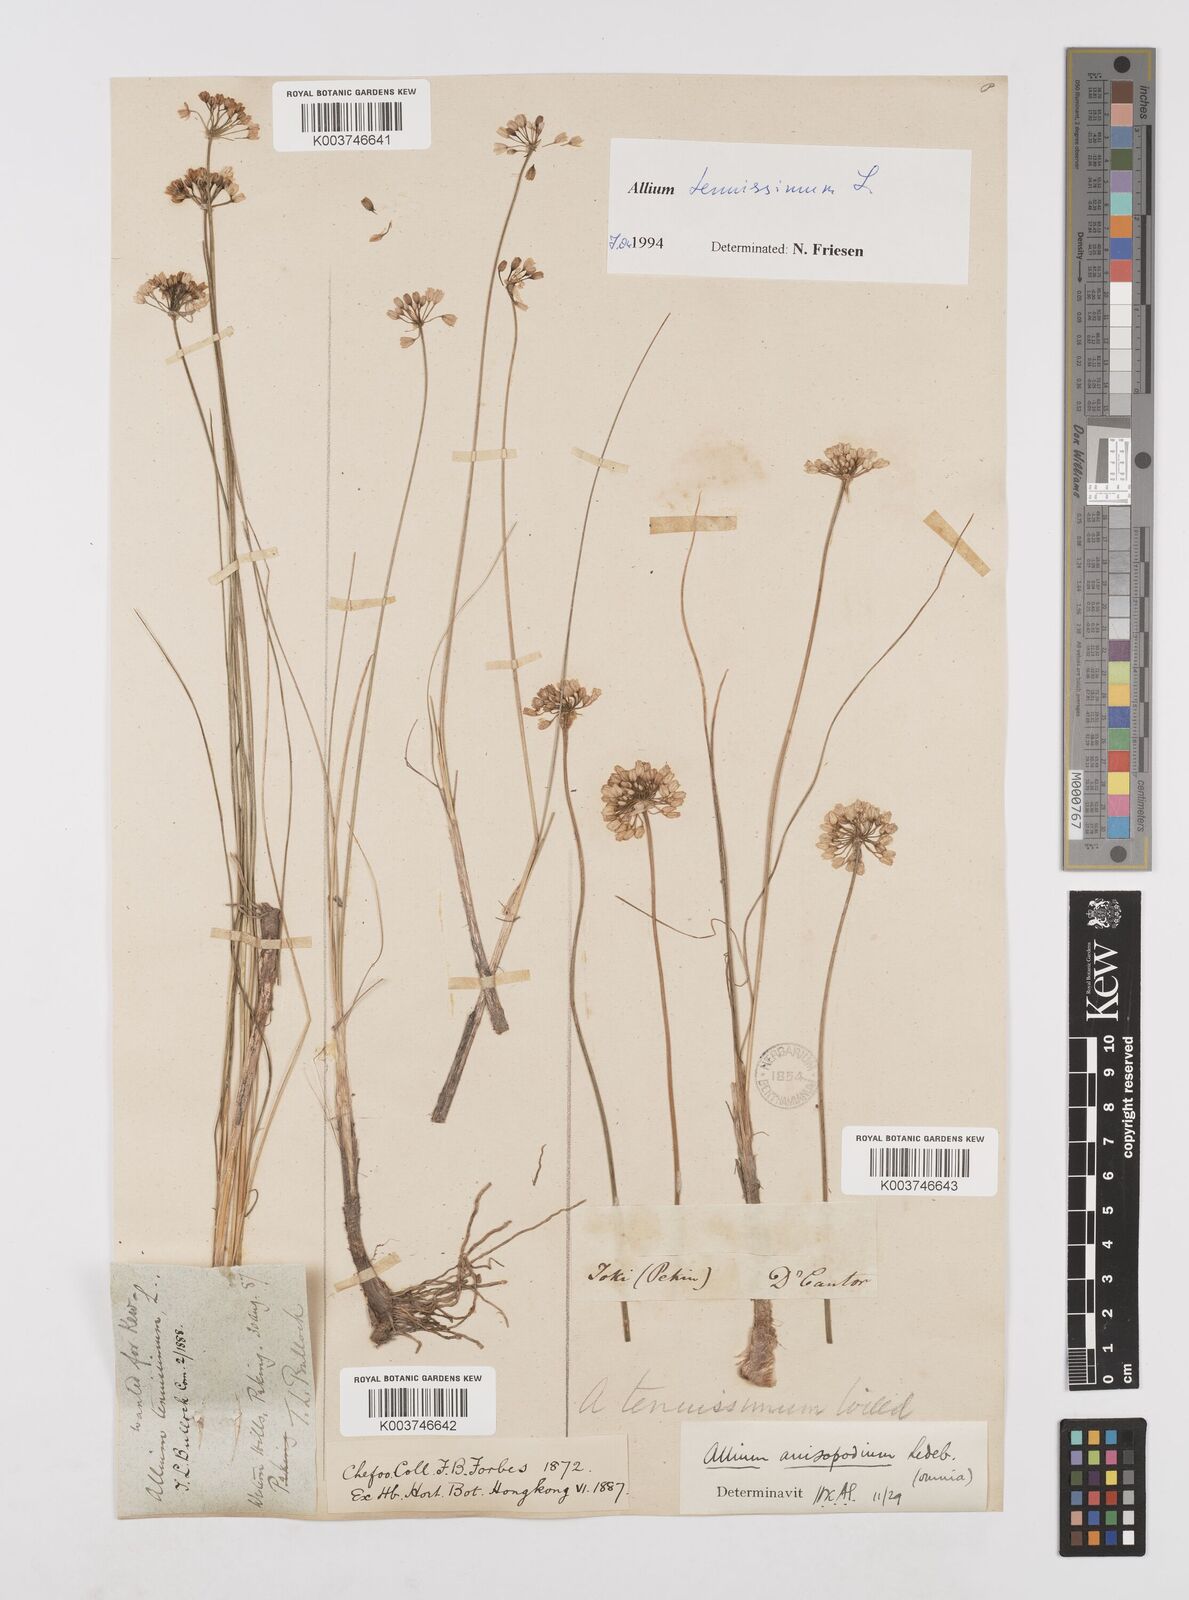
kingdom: Plantae
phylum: Tracheophyta
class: Liliopsida
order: Asparagales
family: Amaryllidaceae
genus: Allium
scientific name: Allium tenuissimum
